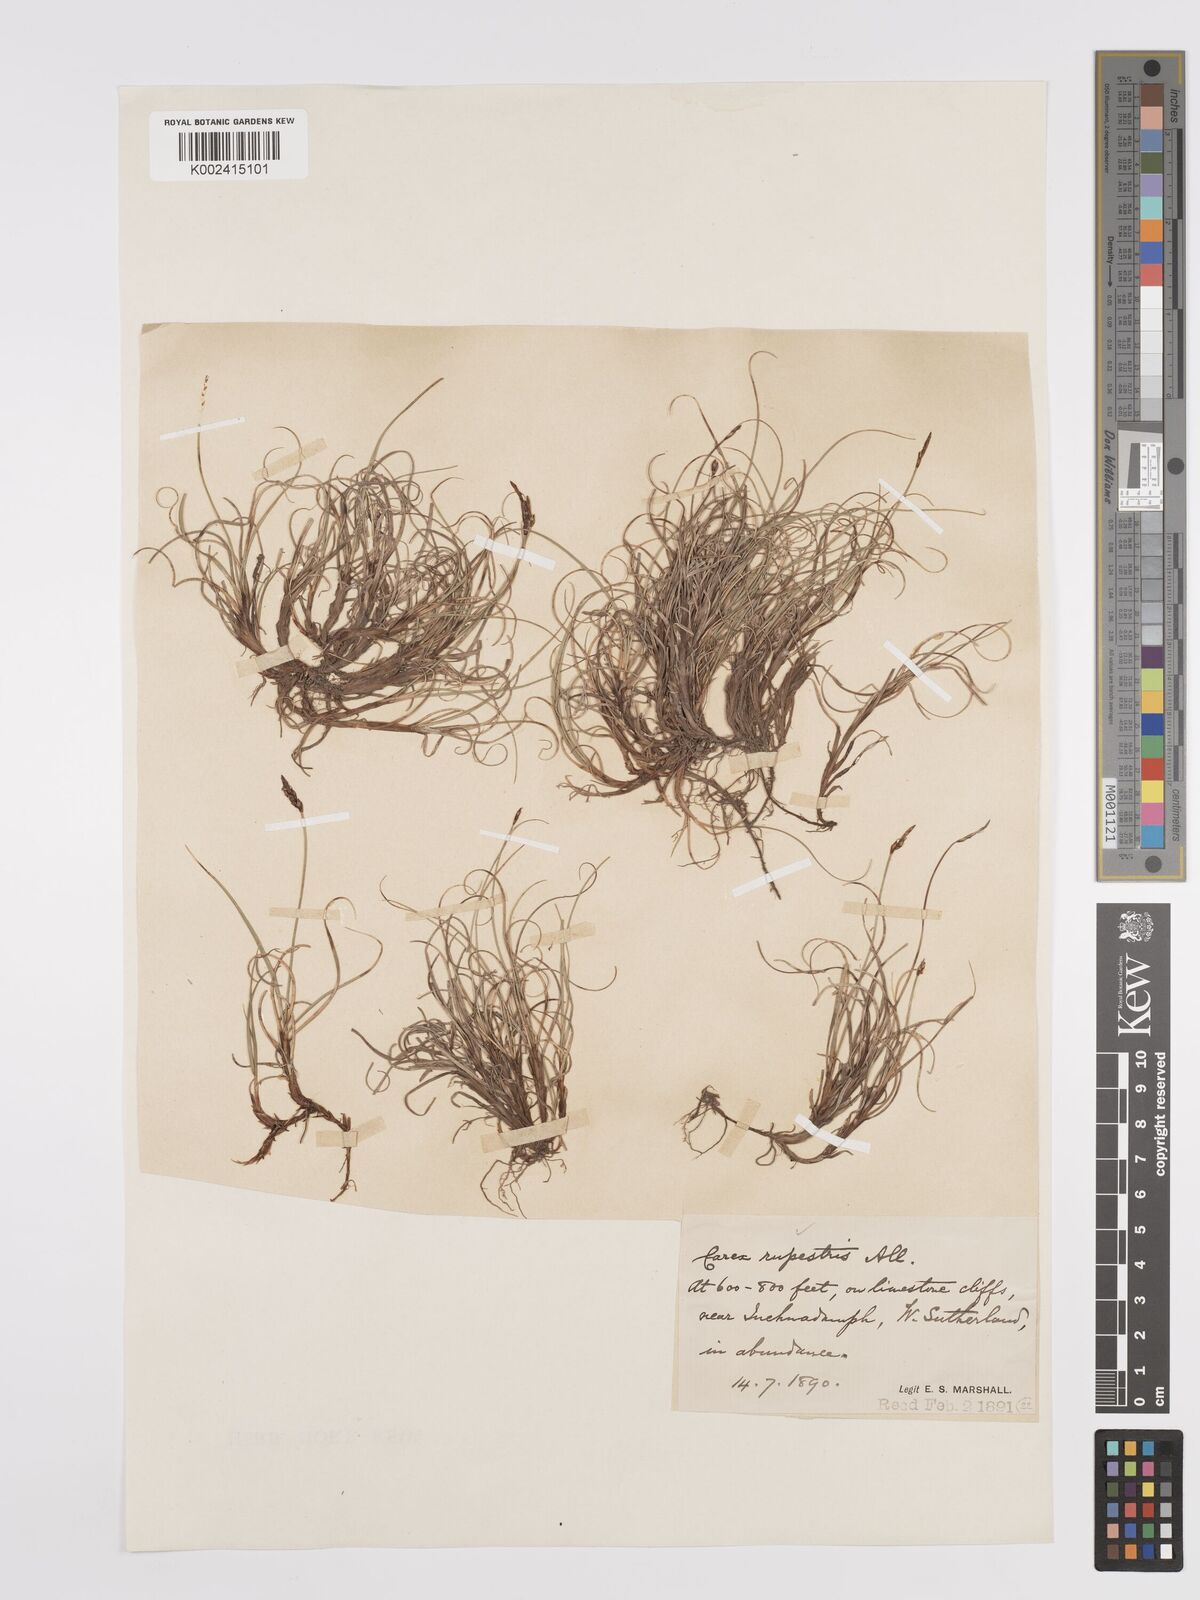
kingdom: Plantae
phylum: Tracheophyta
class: Liliopsida
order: Poales
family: Cyperaceae
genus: Carex
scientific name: Carex rupestris
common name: Rock sedge
